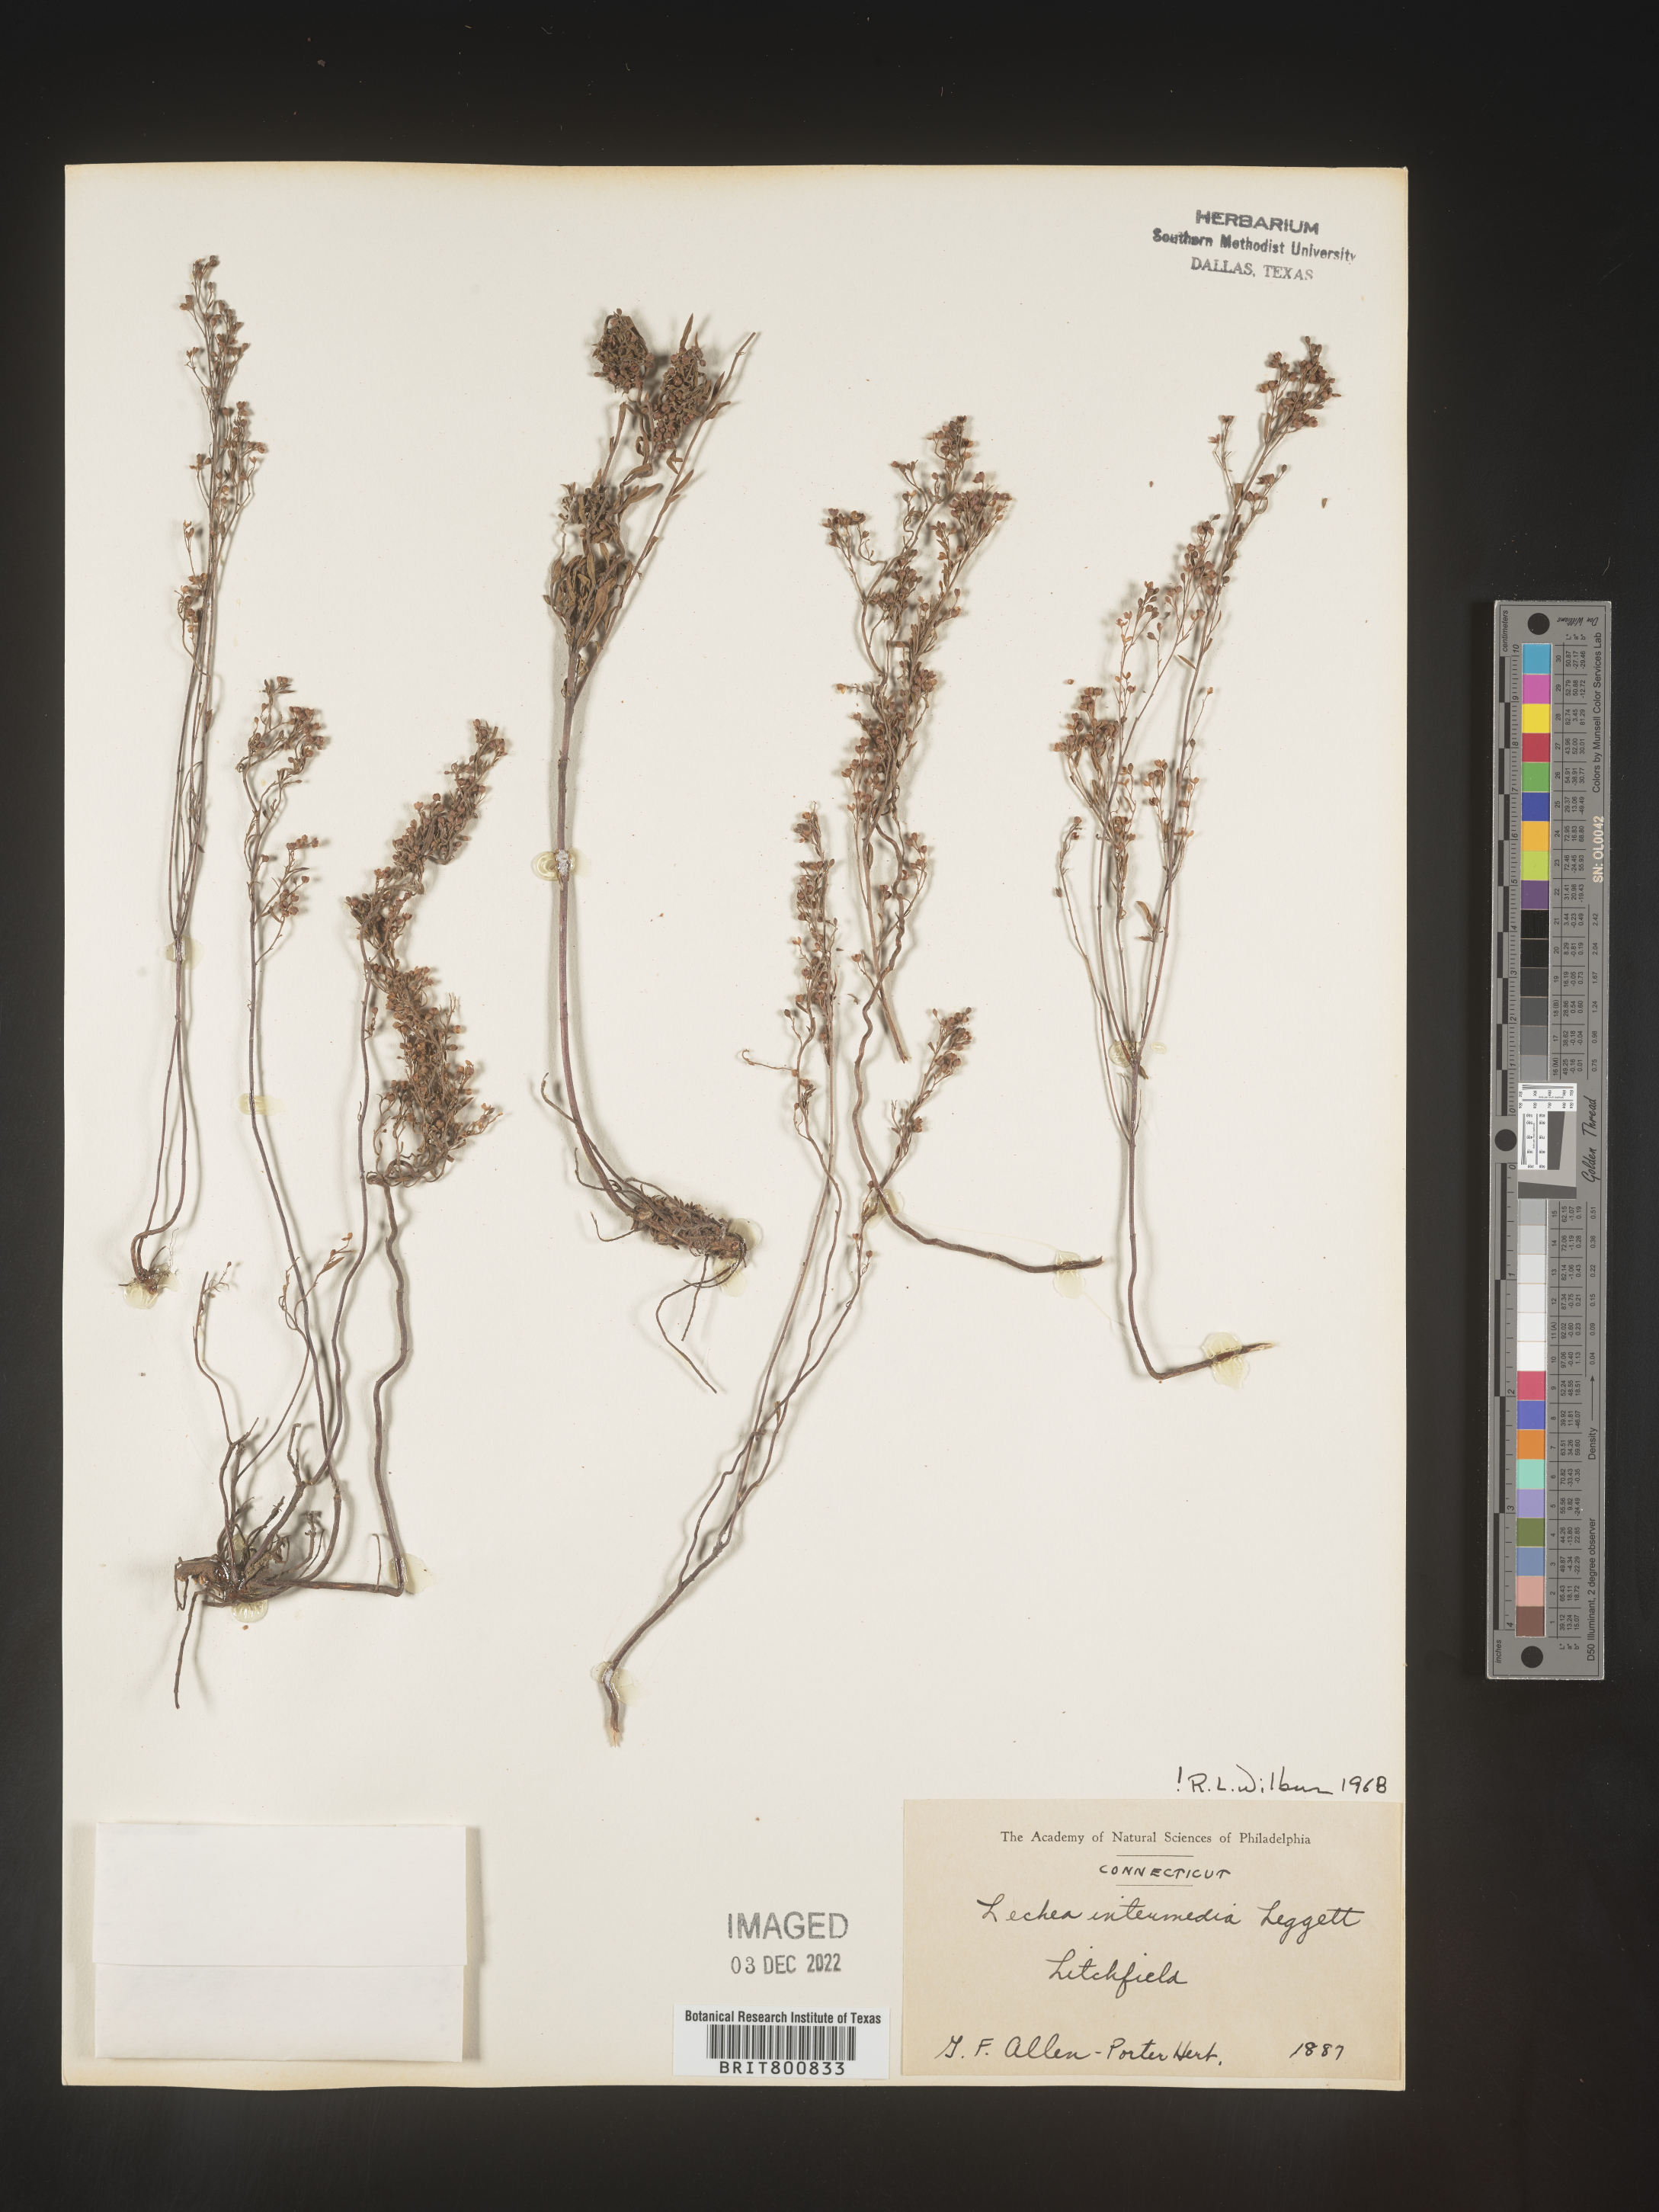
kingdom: Plantae
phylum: Tracheophyta
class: Magnoliopsida
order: Malvales
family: Cistaceae
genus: Lechea
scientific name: Lechea intermedia
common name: Intermediate pinweed
